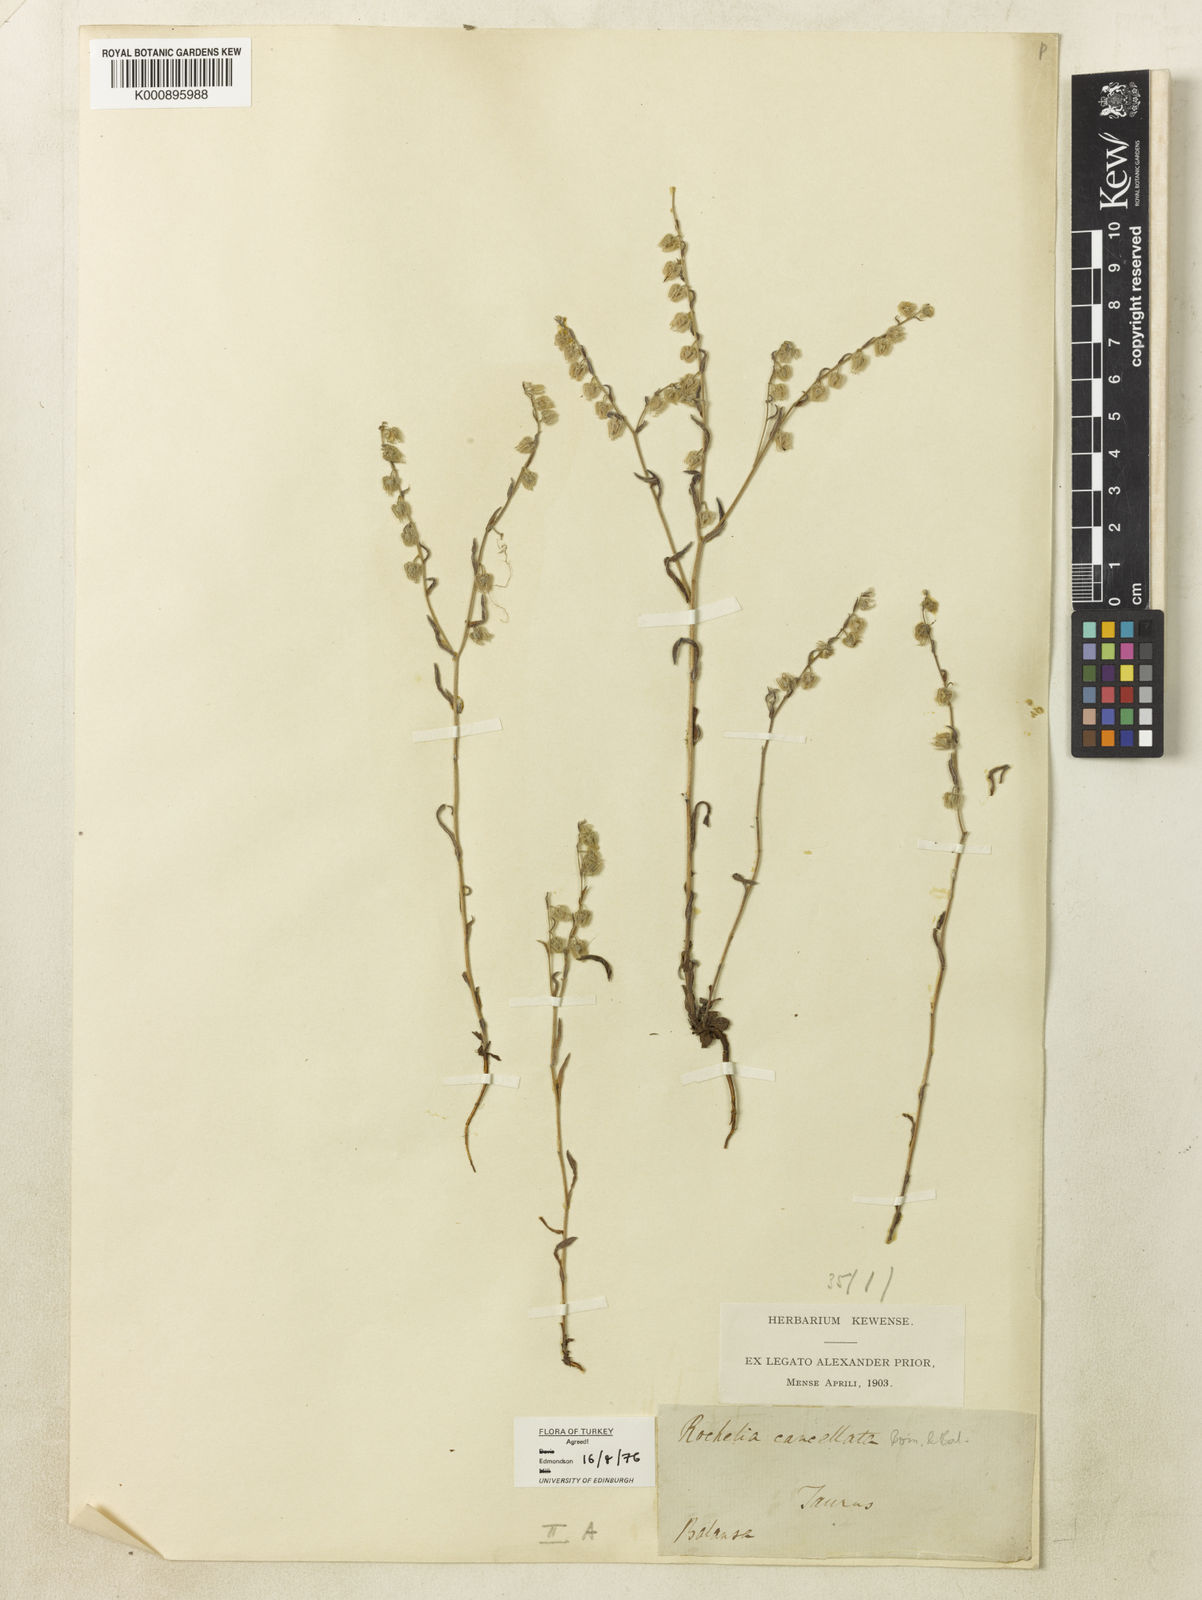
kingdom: Plantae
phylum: Tracheophyta
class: Magnoliopsida
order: Boraginales
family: Boraginaceae
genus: Rochelia
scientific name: Rochelia cancellata
